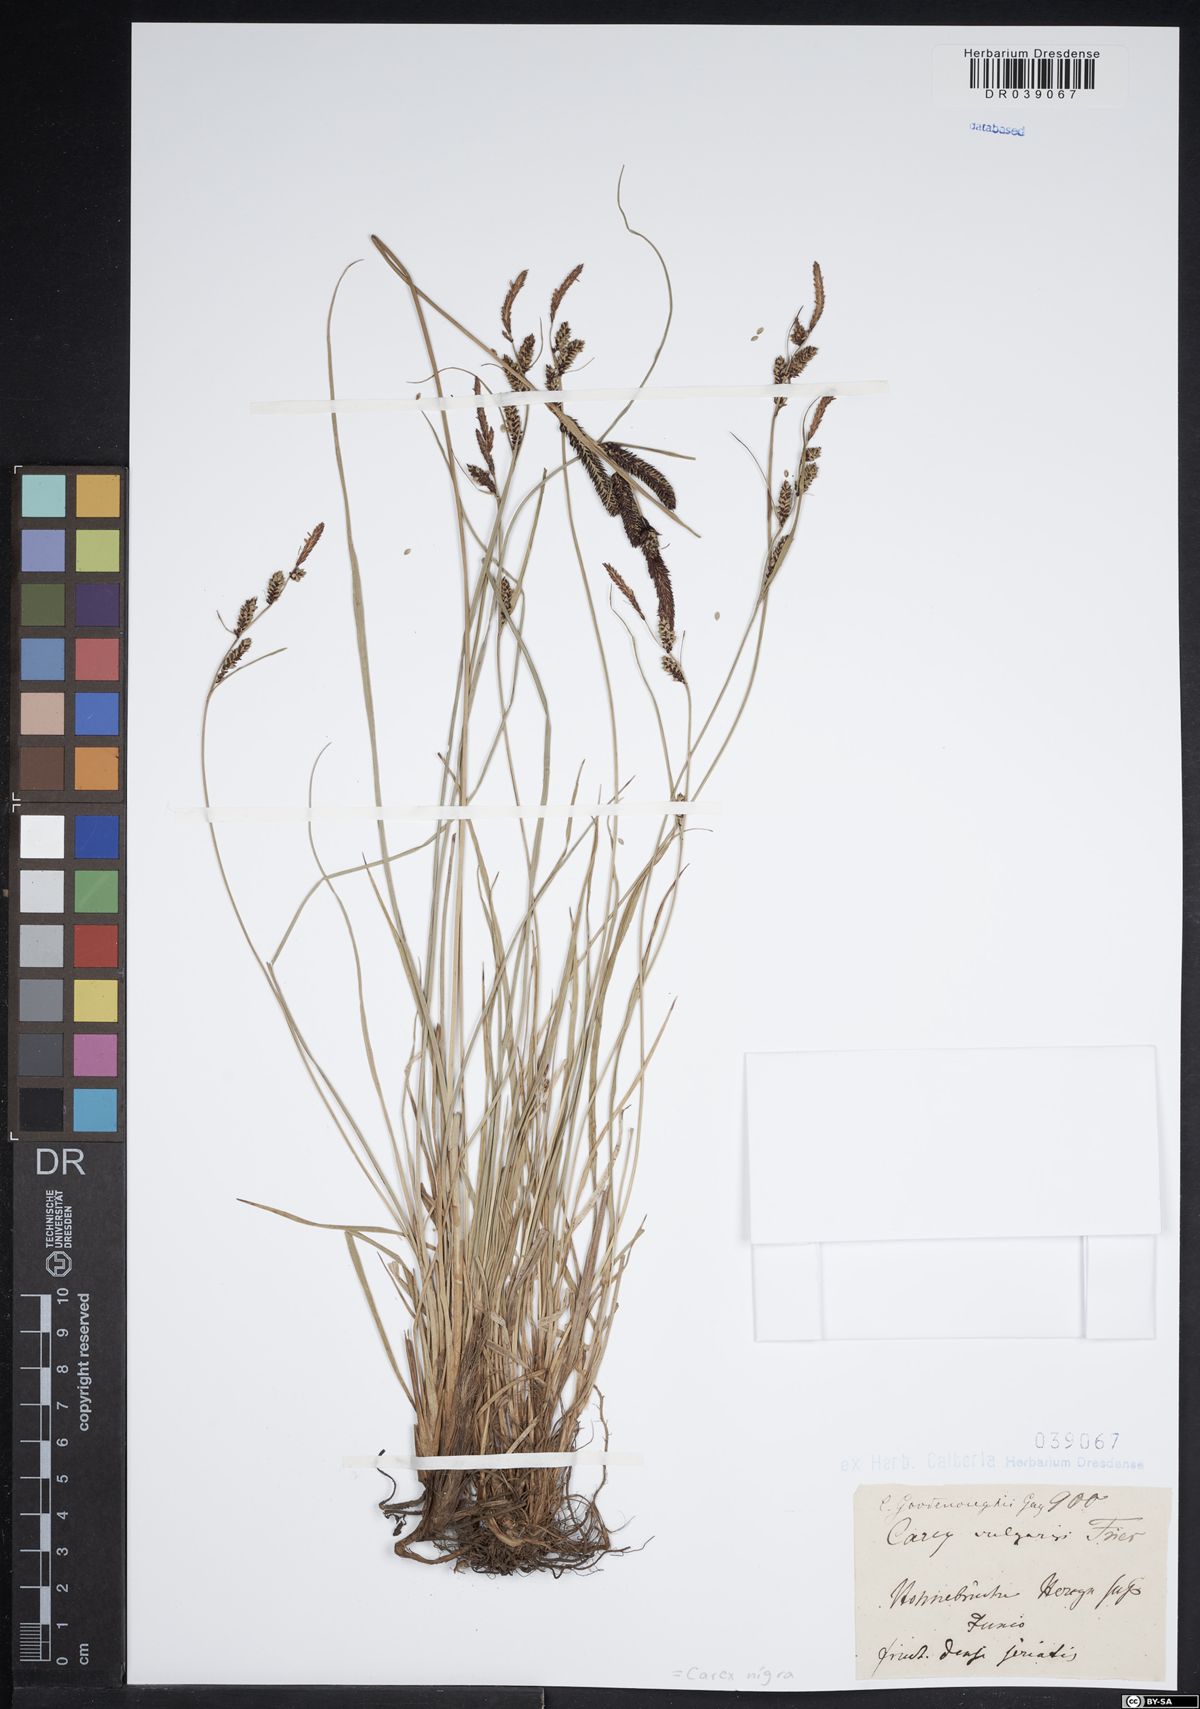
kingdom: Plantae
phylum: Tracheophyta
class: Liliopsida
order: Poales
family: Cyperaceae
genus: Carex
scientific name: Carex nigra
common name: Common sedge
